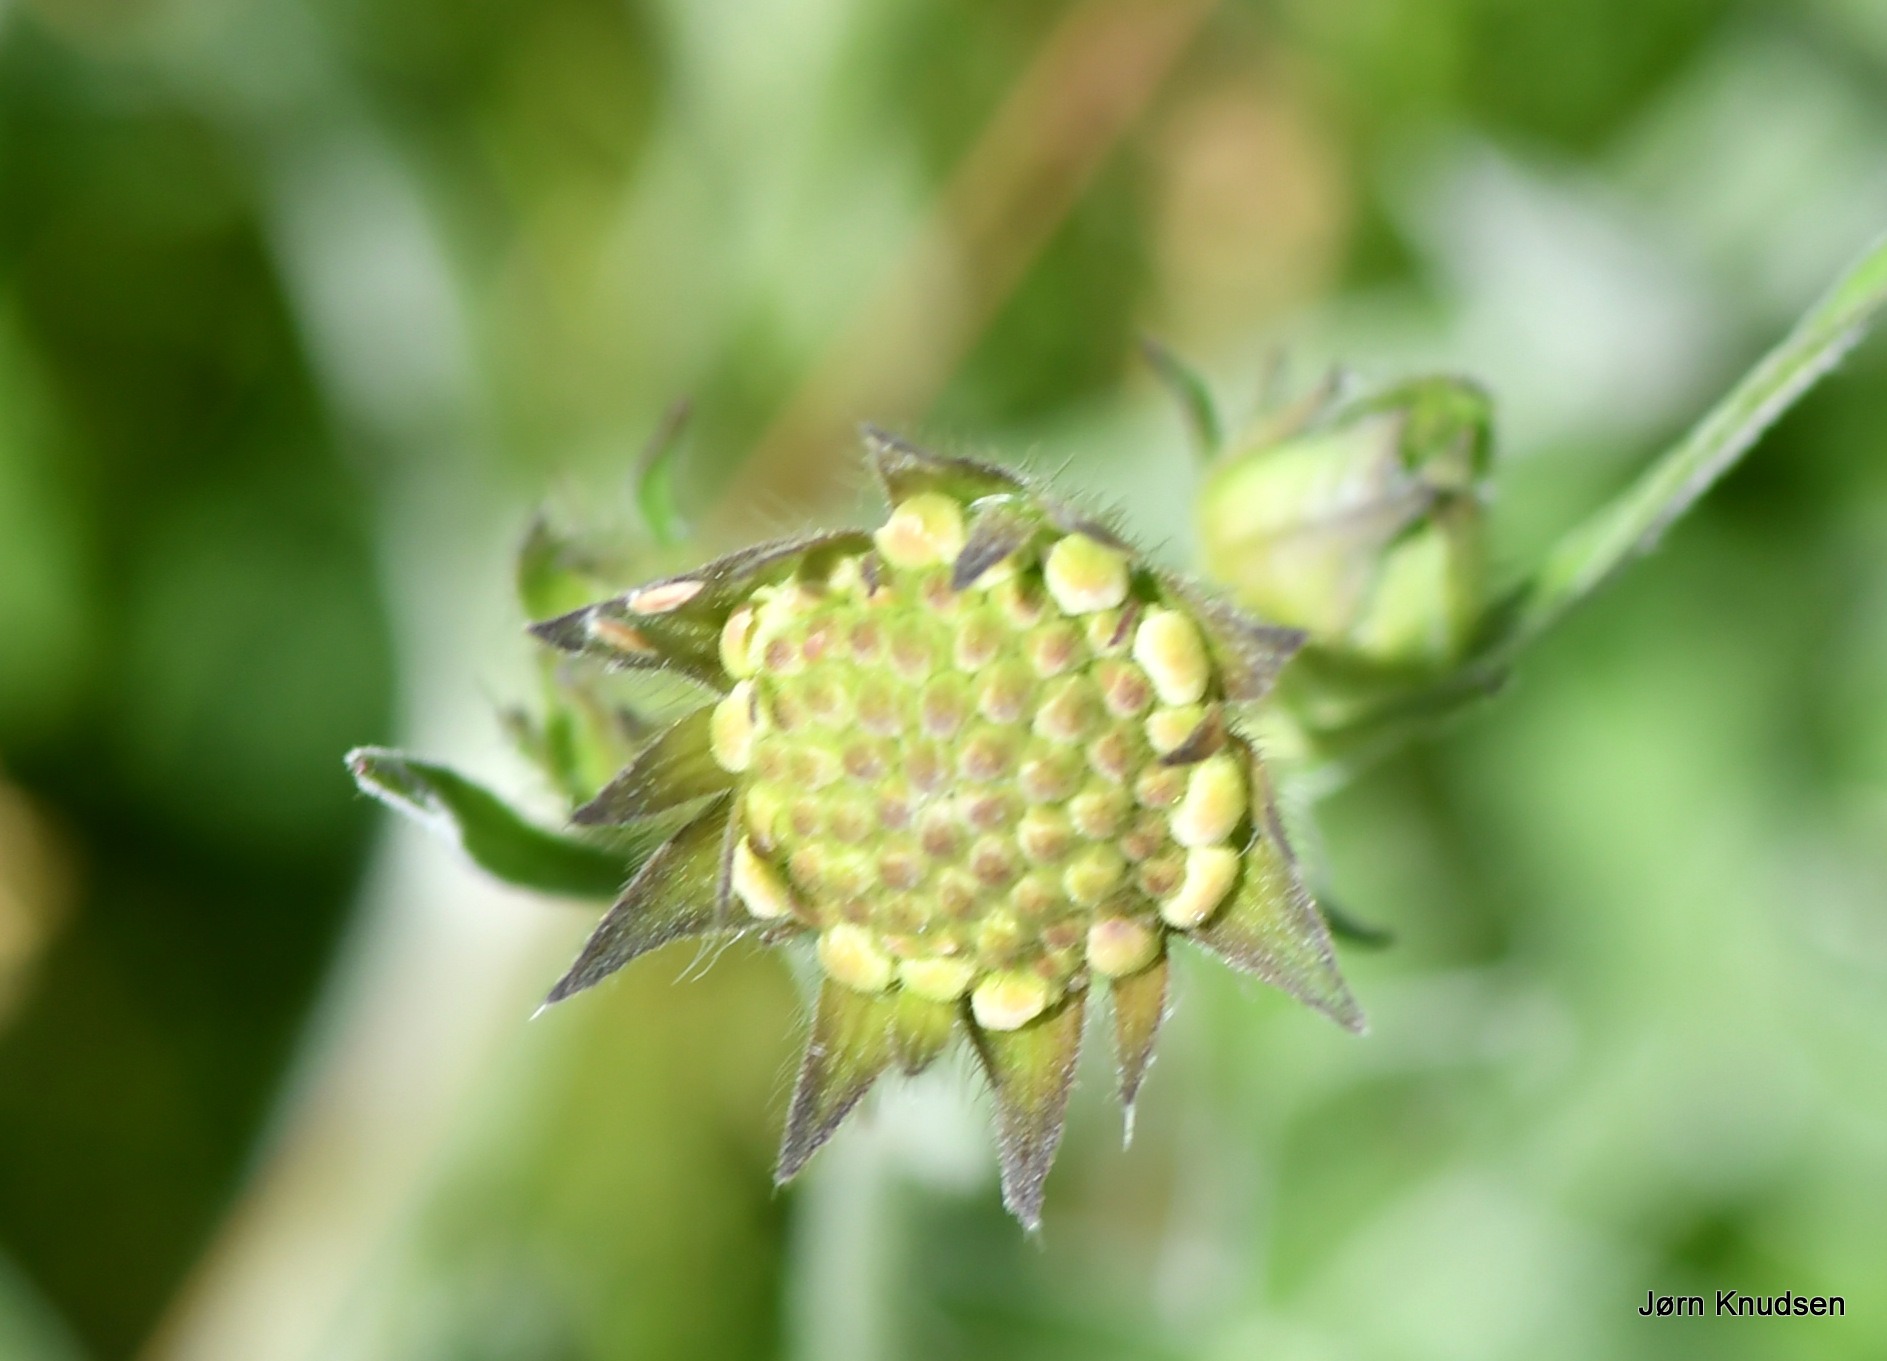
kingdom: Plantae
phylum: Tracheophyta
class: Magnoliopsida
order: Dipsacales
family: Caprifoliaceae
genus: Knautia
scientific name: Knautia arvensis
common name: Blåhat
